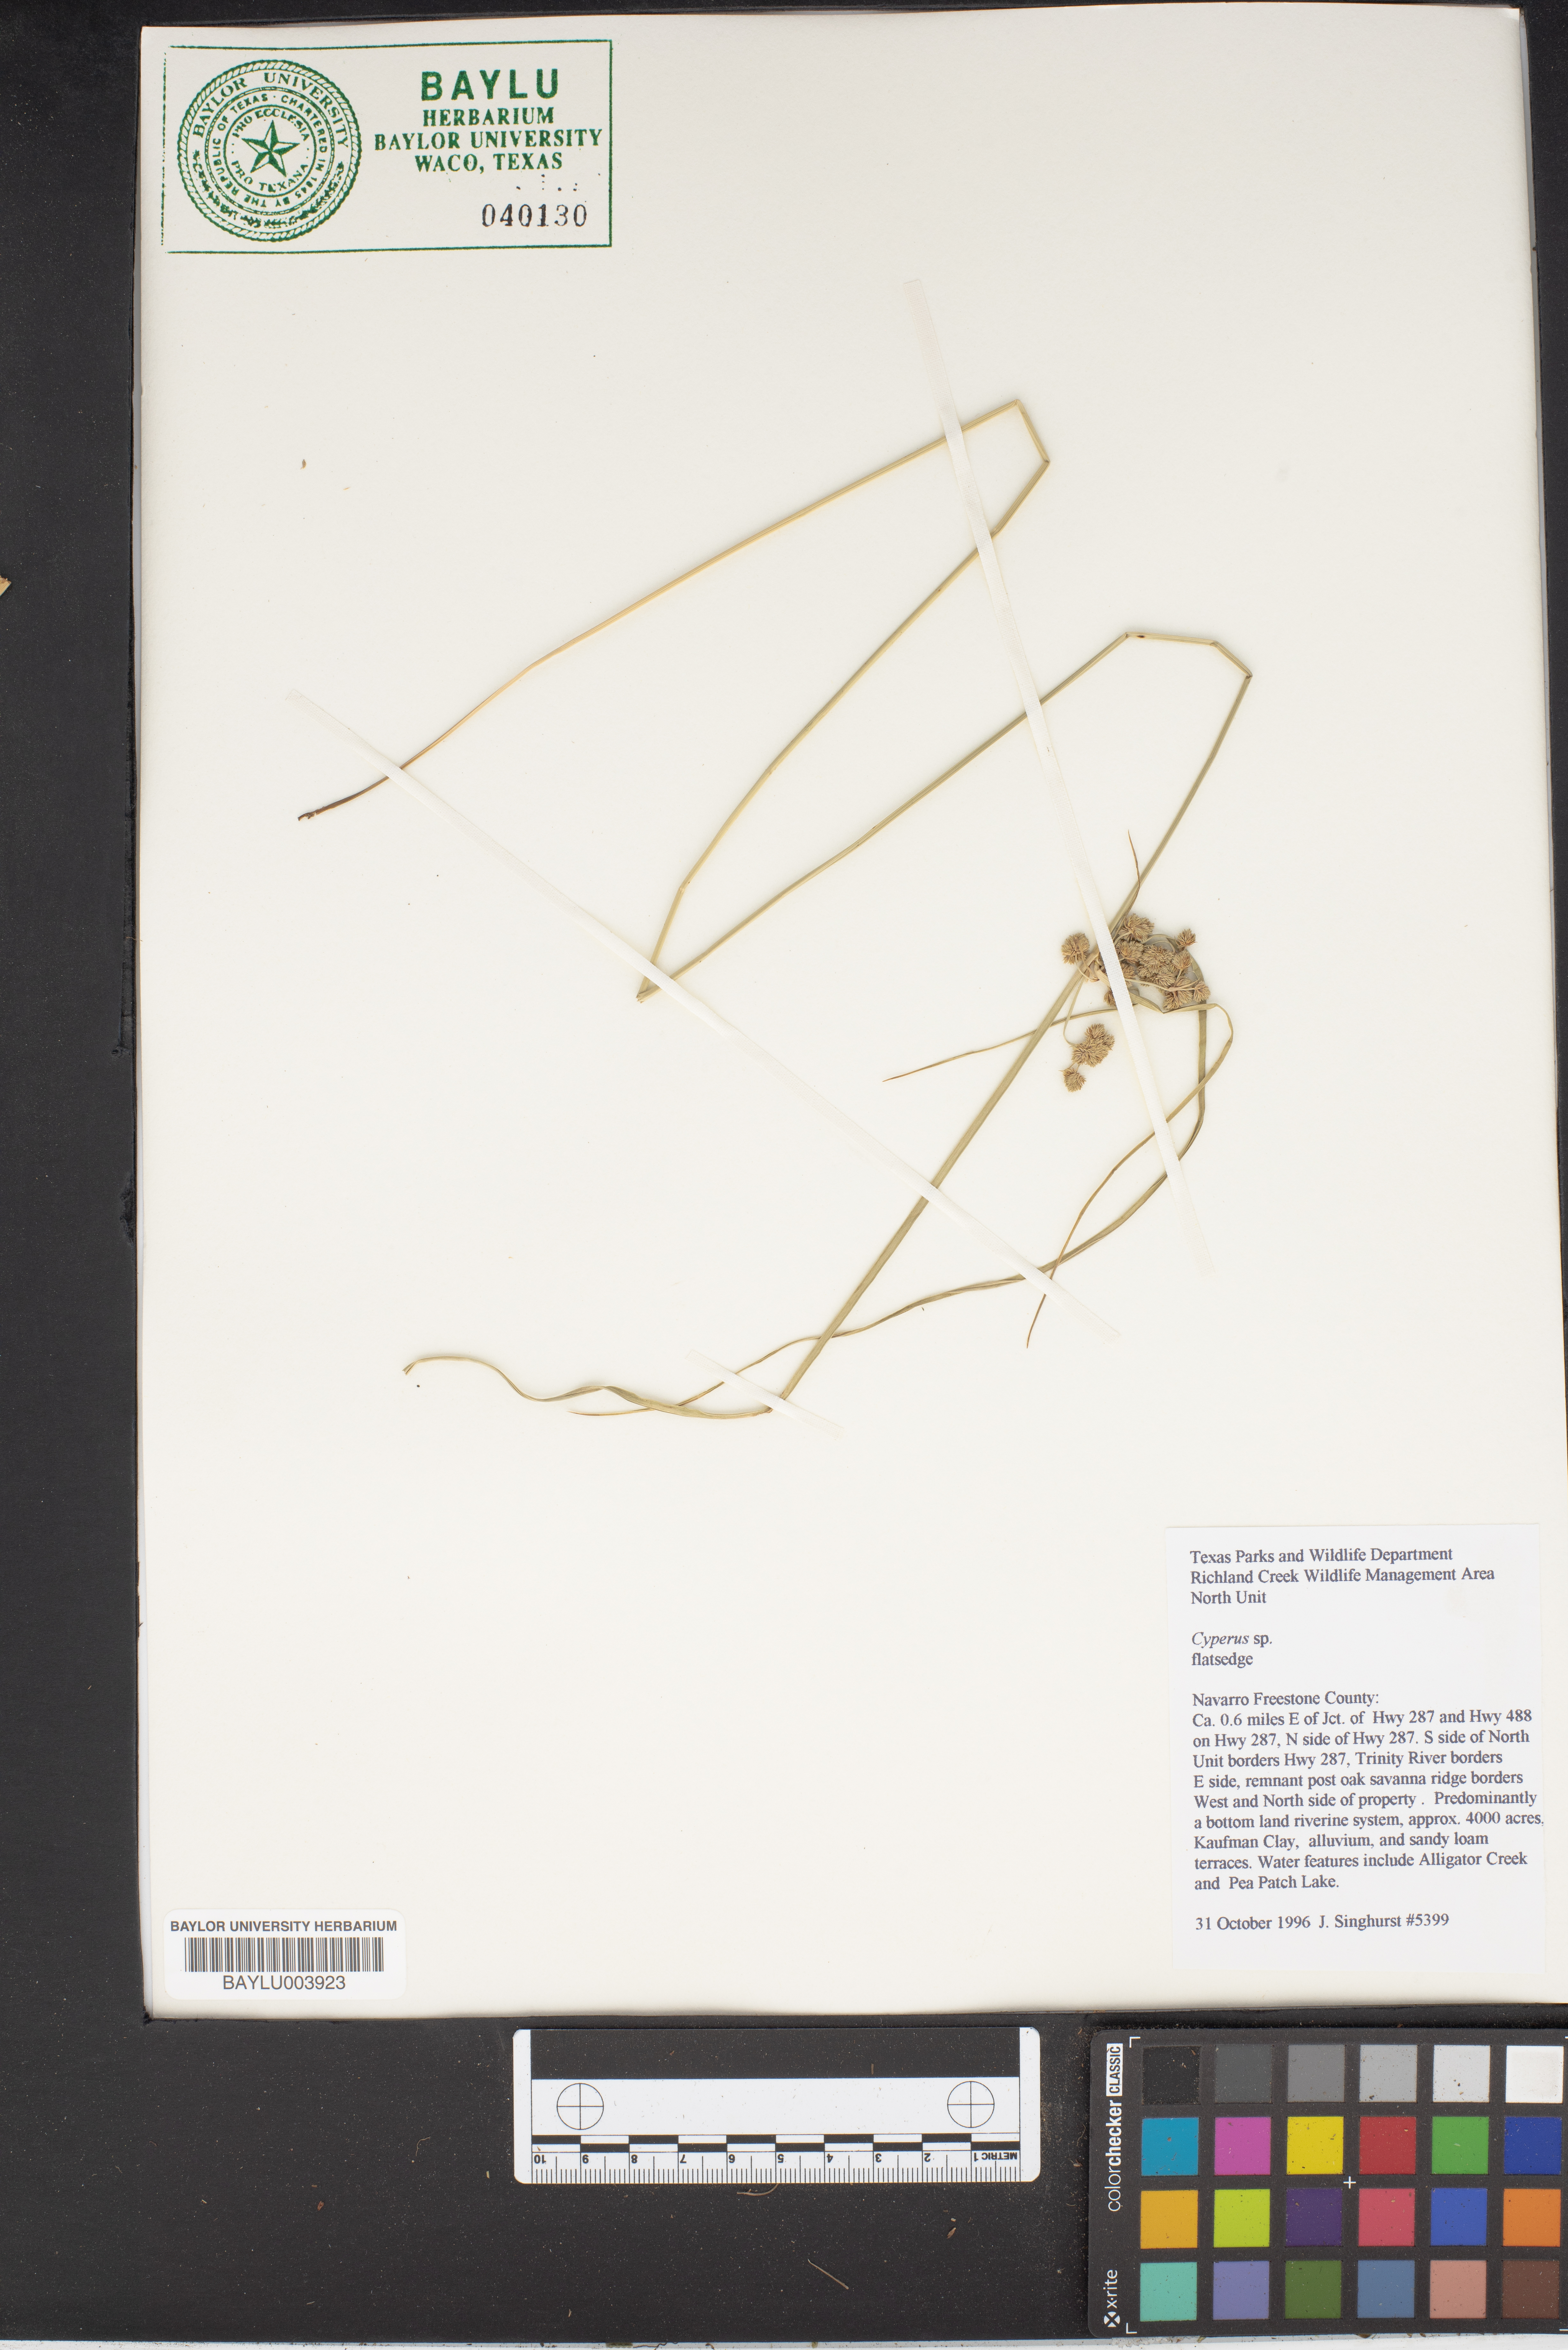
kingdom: Plantae
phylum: Tracheophyta
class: Liliopsida
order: Poales
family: Cyperaceae
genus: Cyperus
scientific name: Cyperus
